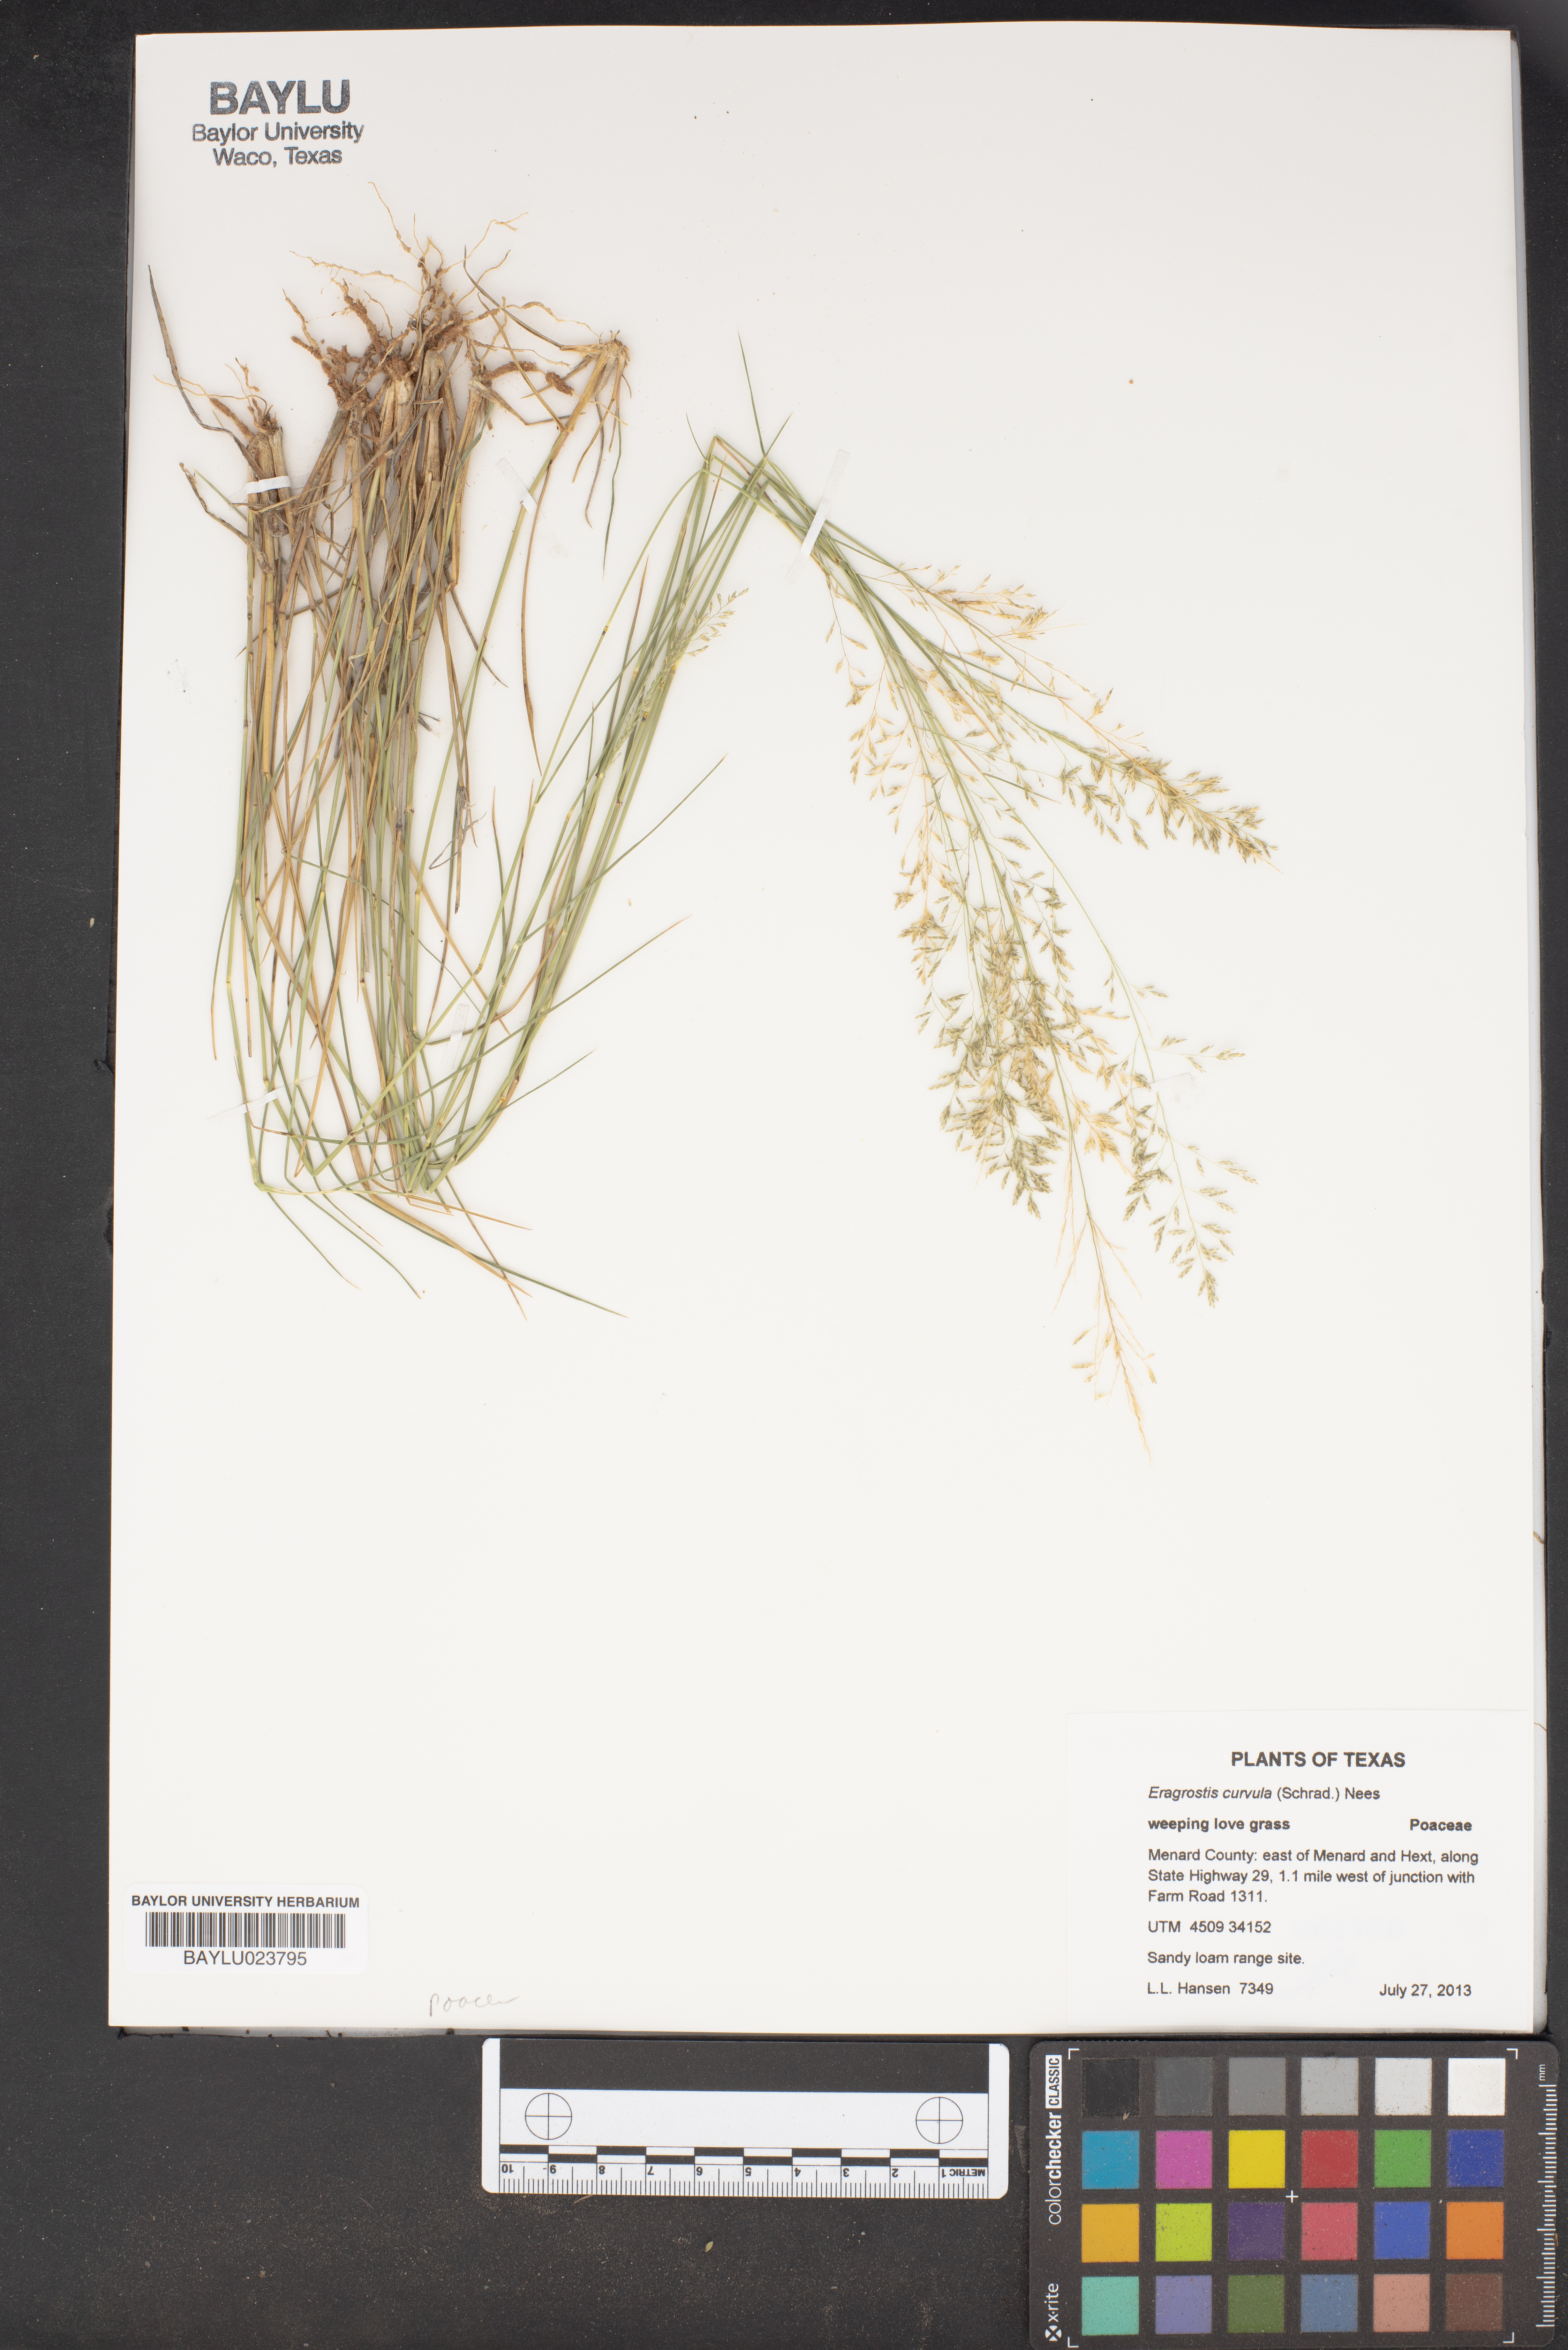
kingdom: Plantae
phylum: Tracheophyta
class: Liliopsida
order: Poales
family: Poaceae
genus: Eragrostis
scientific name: Eragrostis
